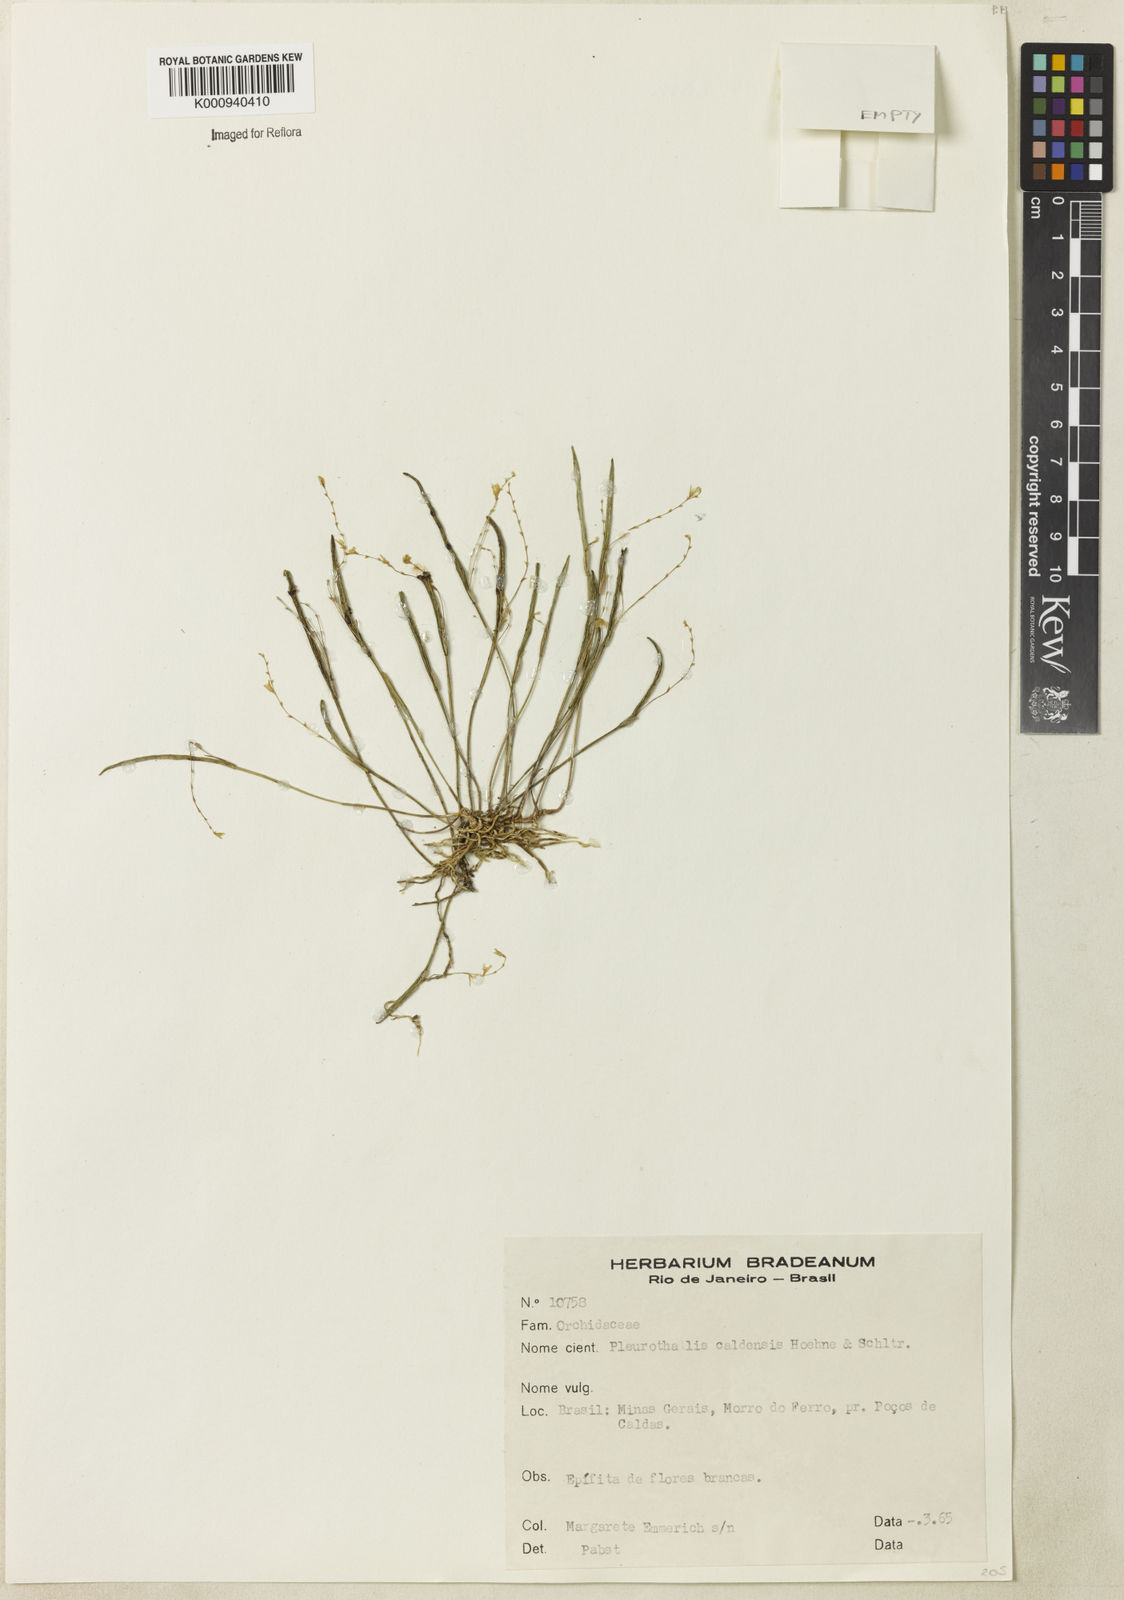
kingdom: Plantae
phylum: Tracheophyta
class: Liliopsida
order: Asparagales
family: Orchidaceae
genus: Acianthera
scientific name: Acianthera caldensis
